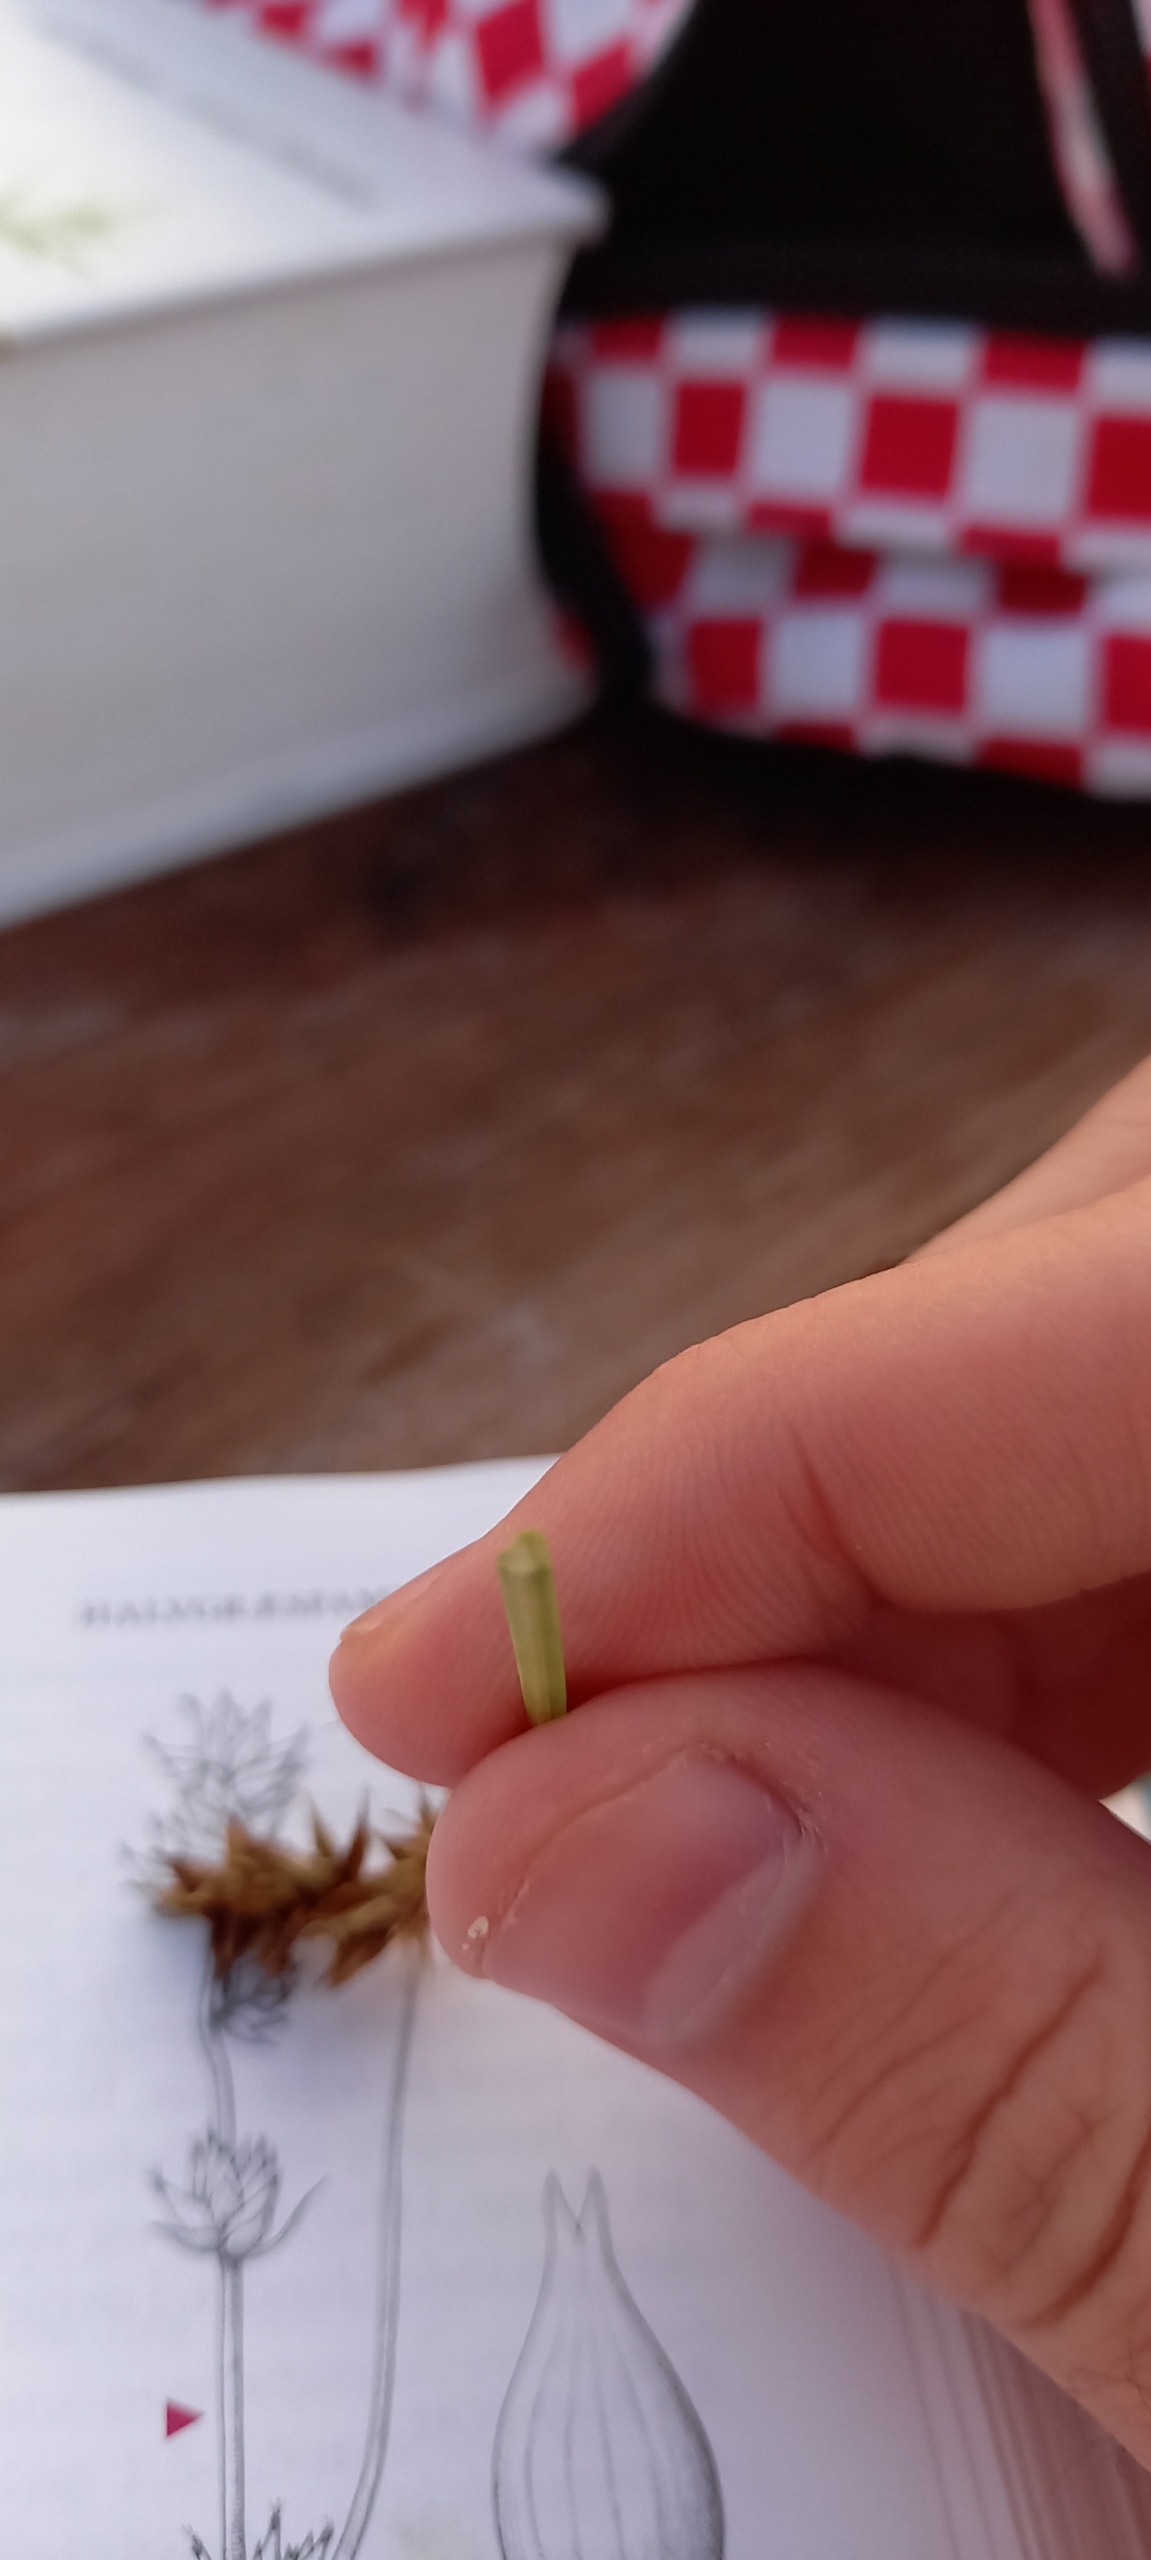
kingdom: Plantae
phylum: Tracheophyta
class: Liliopsida
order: Poales
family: Cyperaceae
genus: Carex
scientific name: Carex spicata
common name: Spidskapslet star
